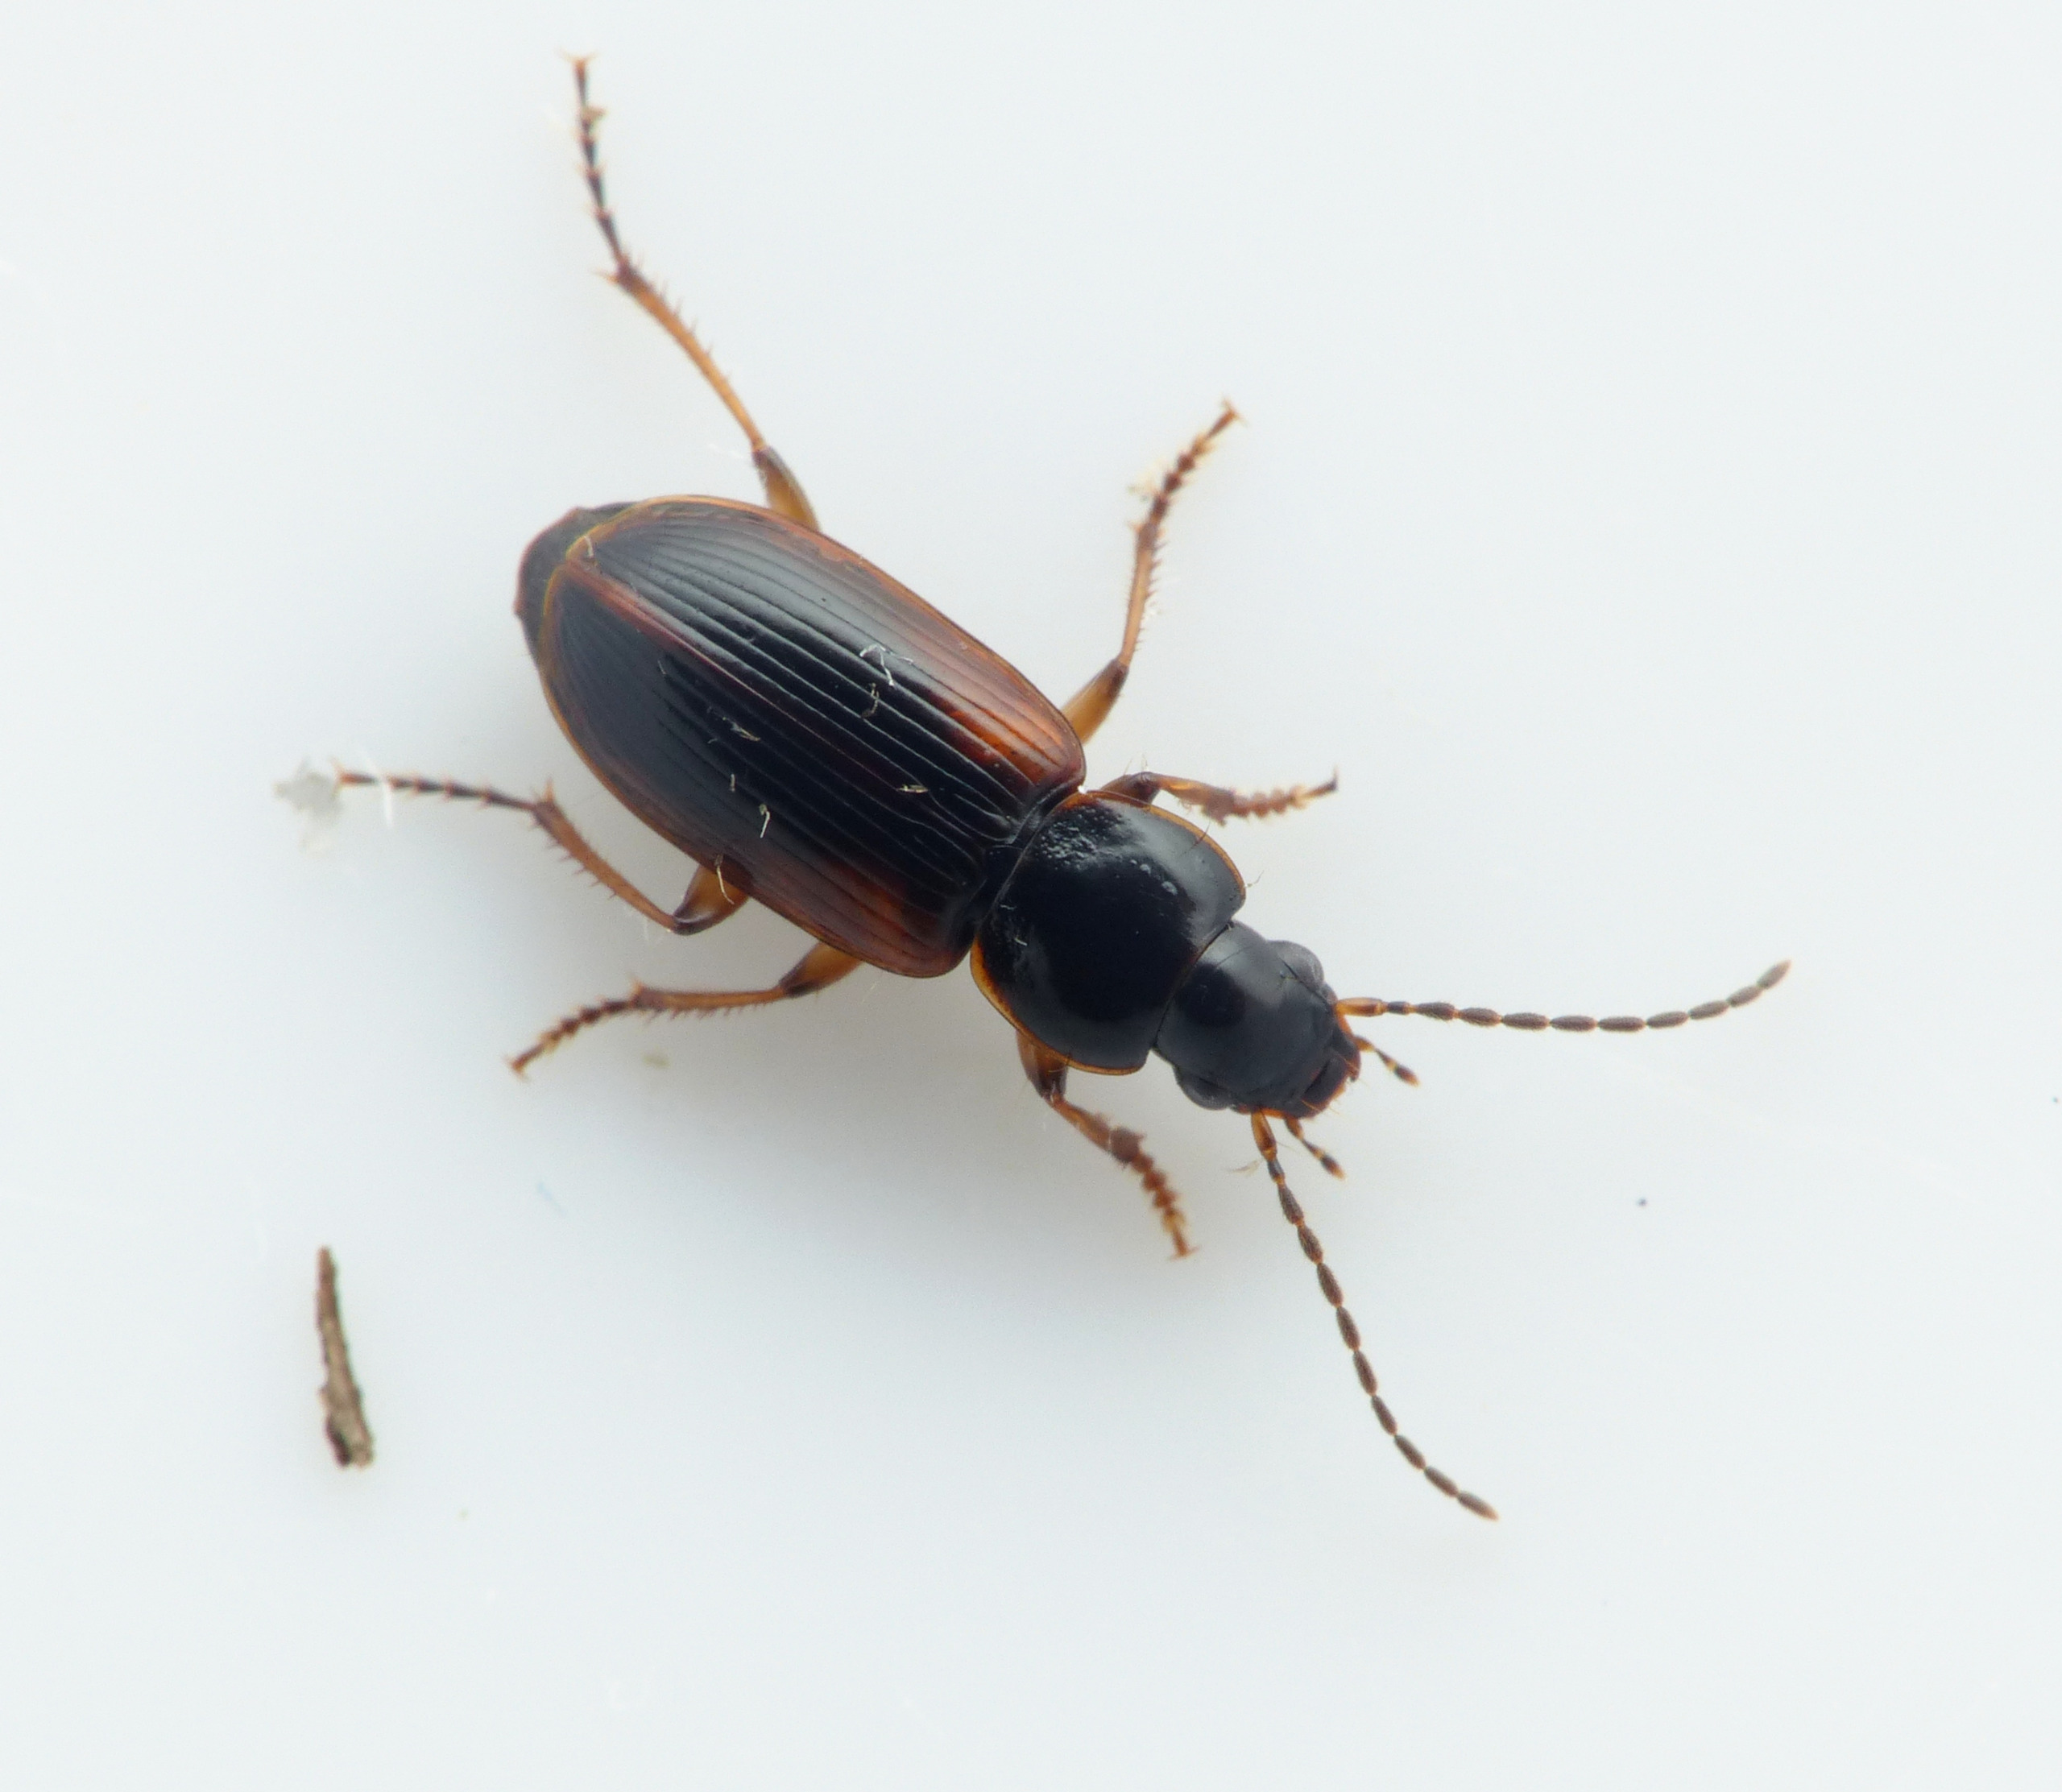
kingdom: Animalia
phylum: Arthropoda
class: Insecta
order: Coleoptera
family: Carabidae
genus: Stenolophus
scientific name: Stenolophus mixtus
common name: Mørk damløber
